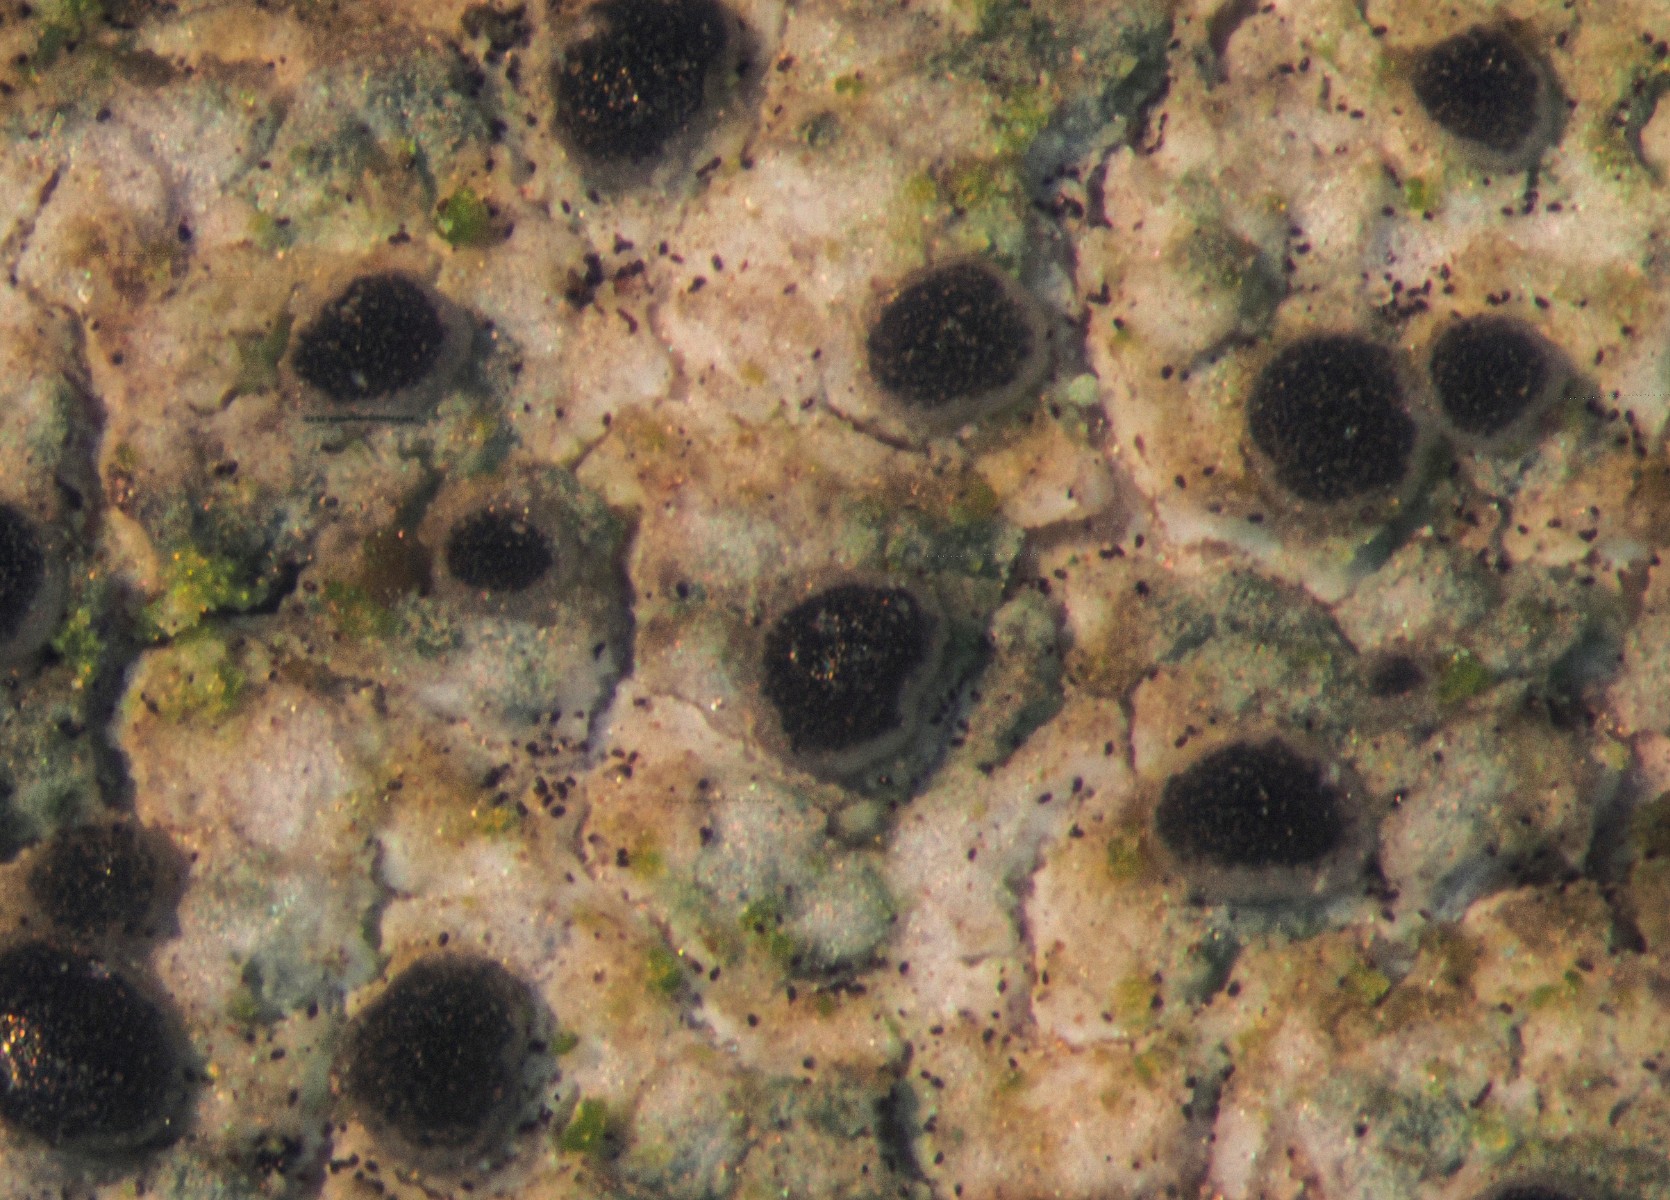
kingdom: Fungi
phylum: Ascomycota
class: Lecanoromycetes
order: Lecanorales
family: Ramalinaceae
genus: Lecania
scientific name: Lecania cyrtella
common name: hylde-lecania
